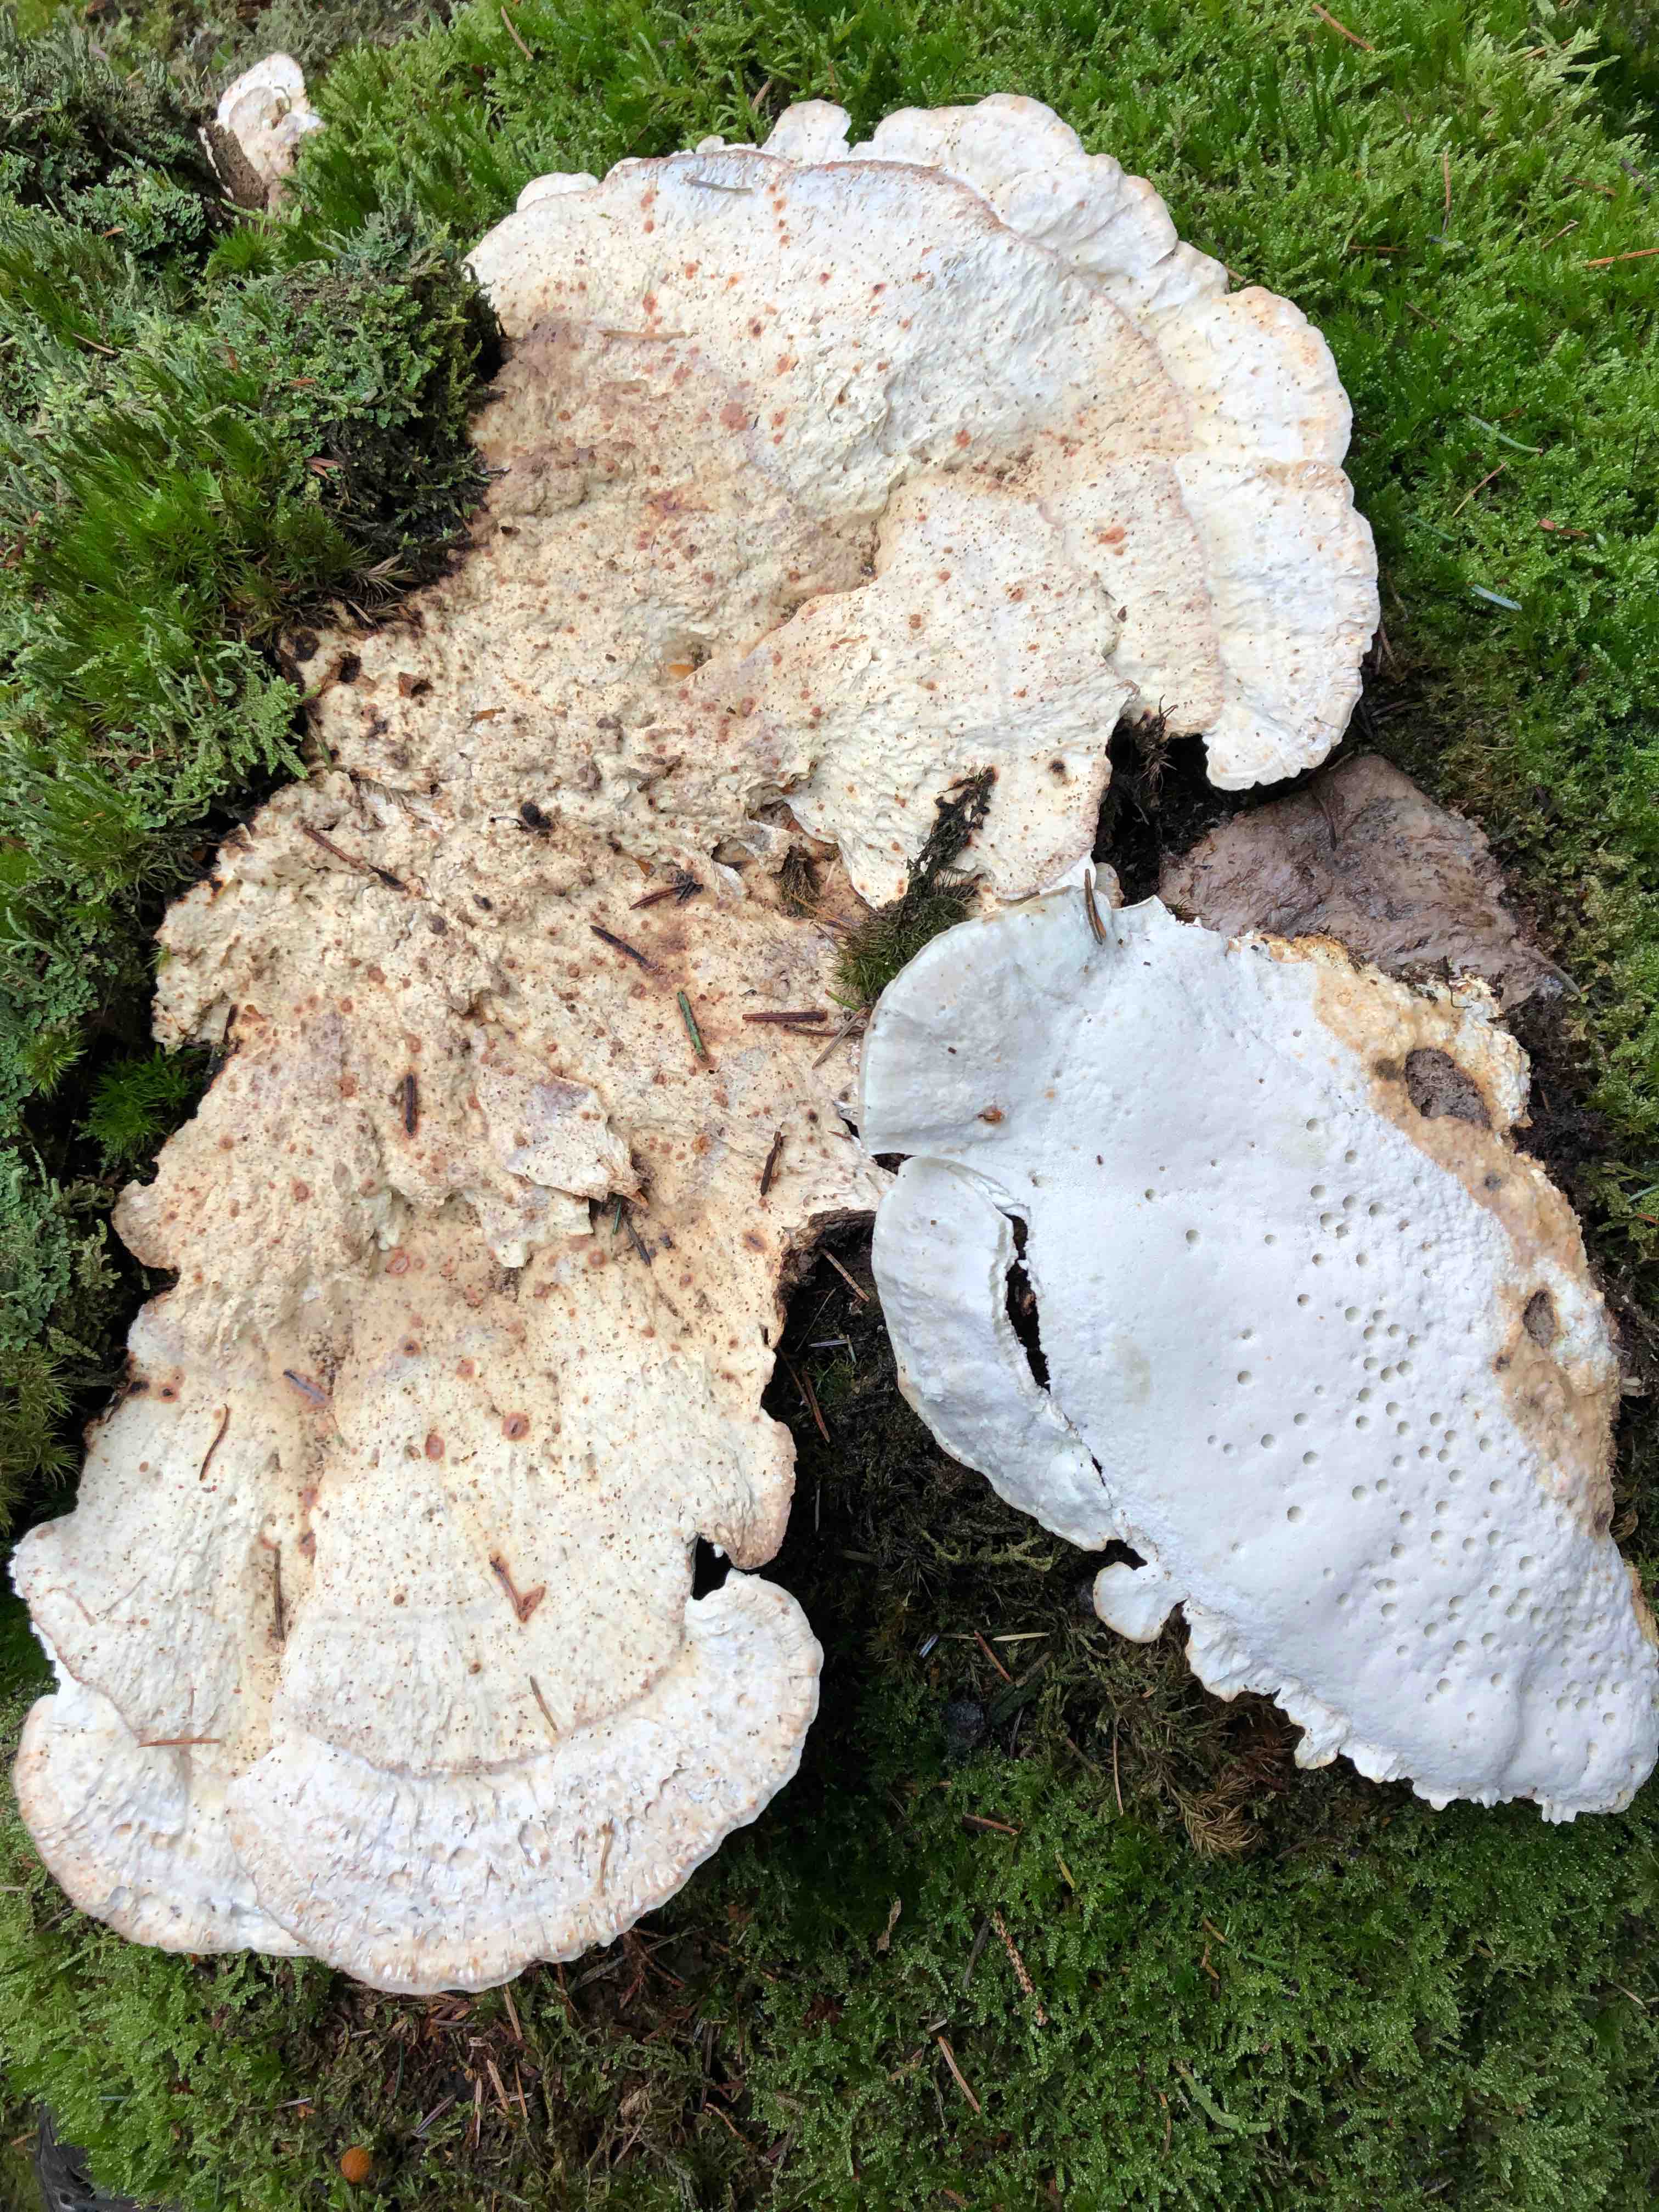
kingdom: Fungi
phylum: Basidiomycota
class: Agaricomycetes
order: Polyporales
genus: Amaropostia
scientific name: Amaropostia stiptica
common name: bitter kødporesvamp
